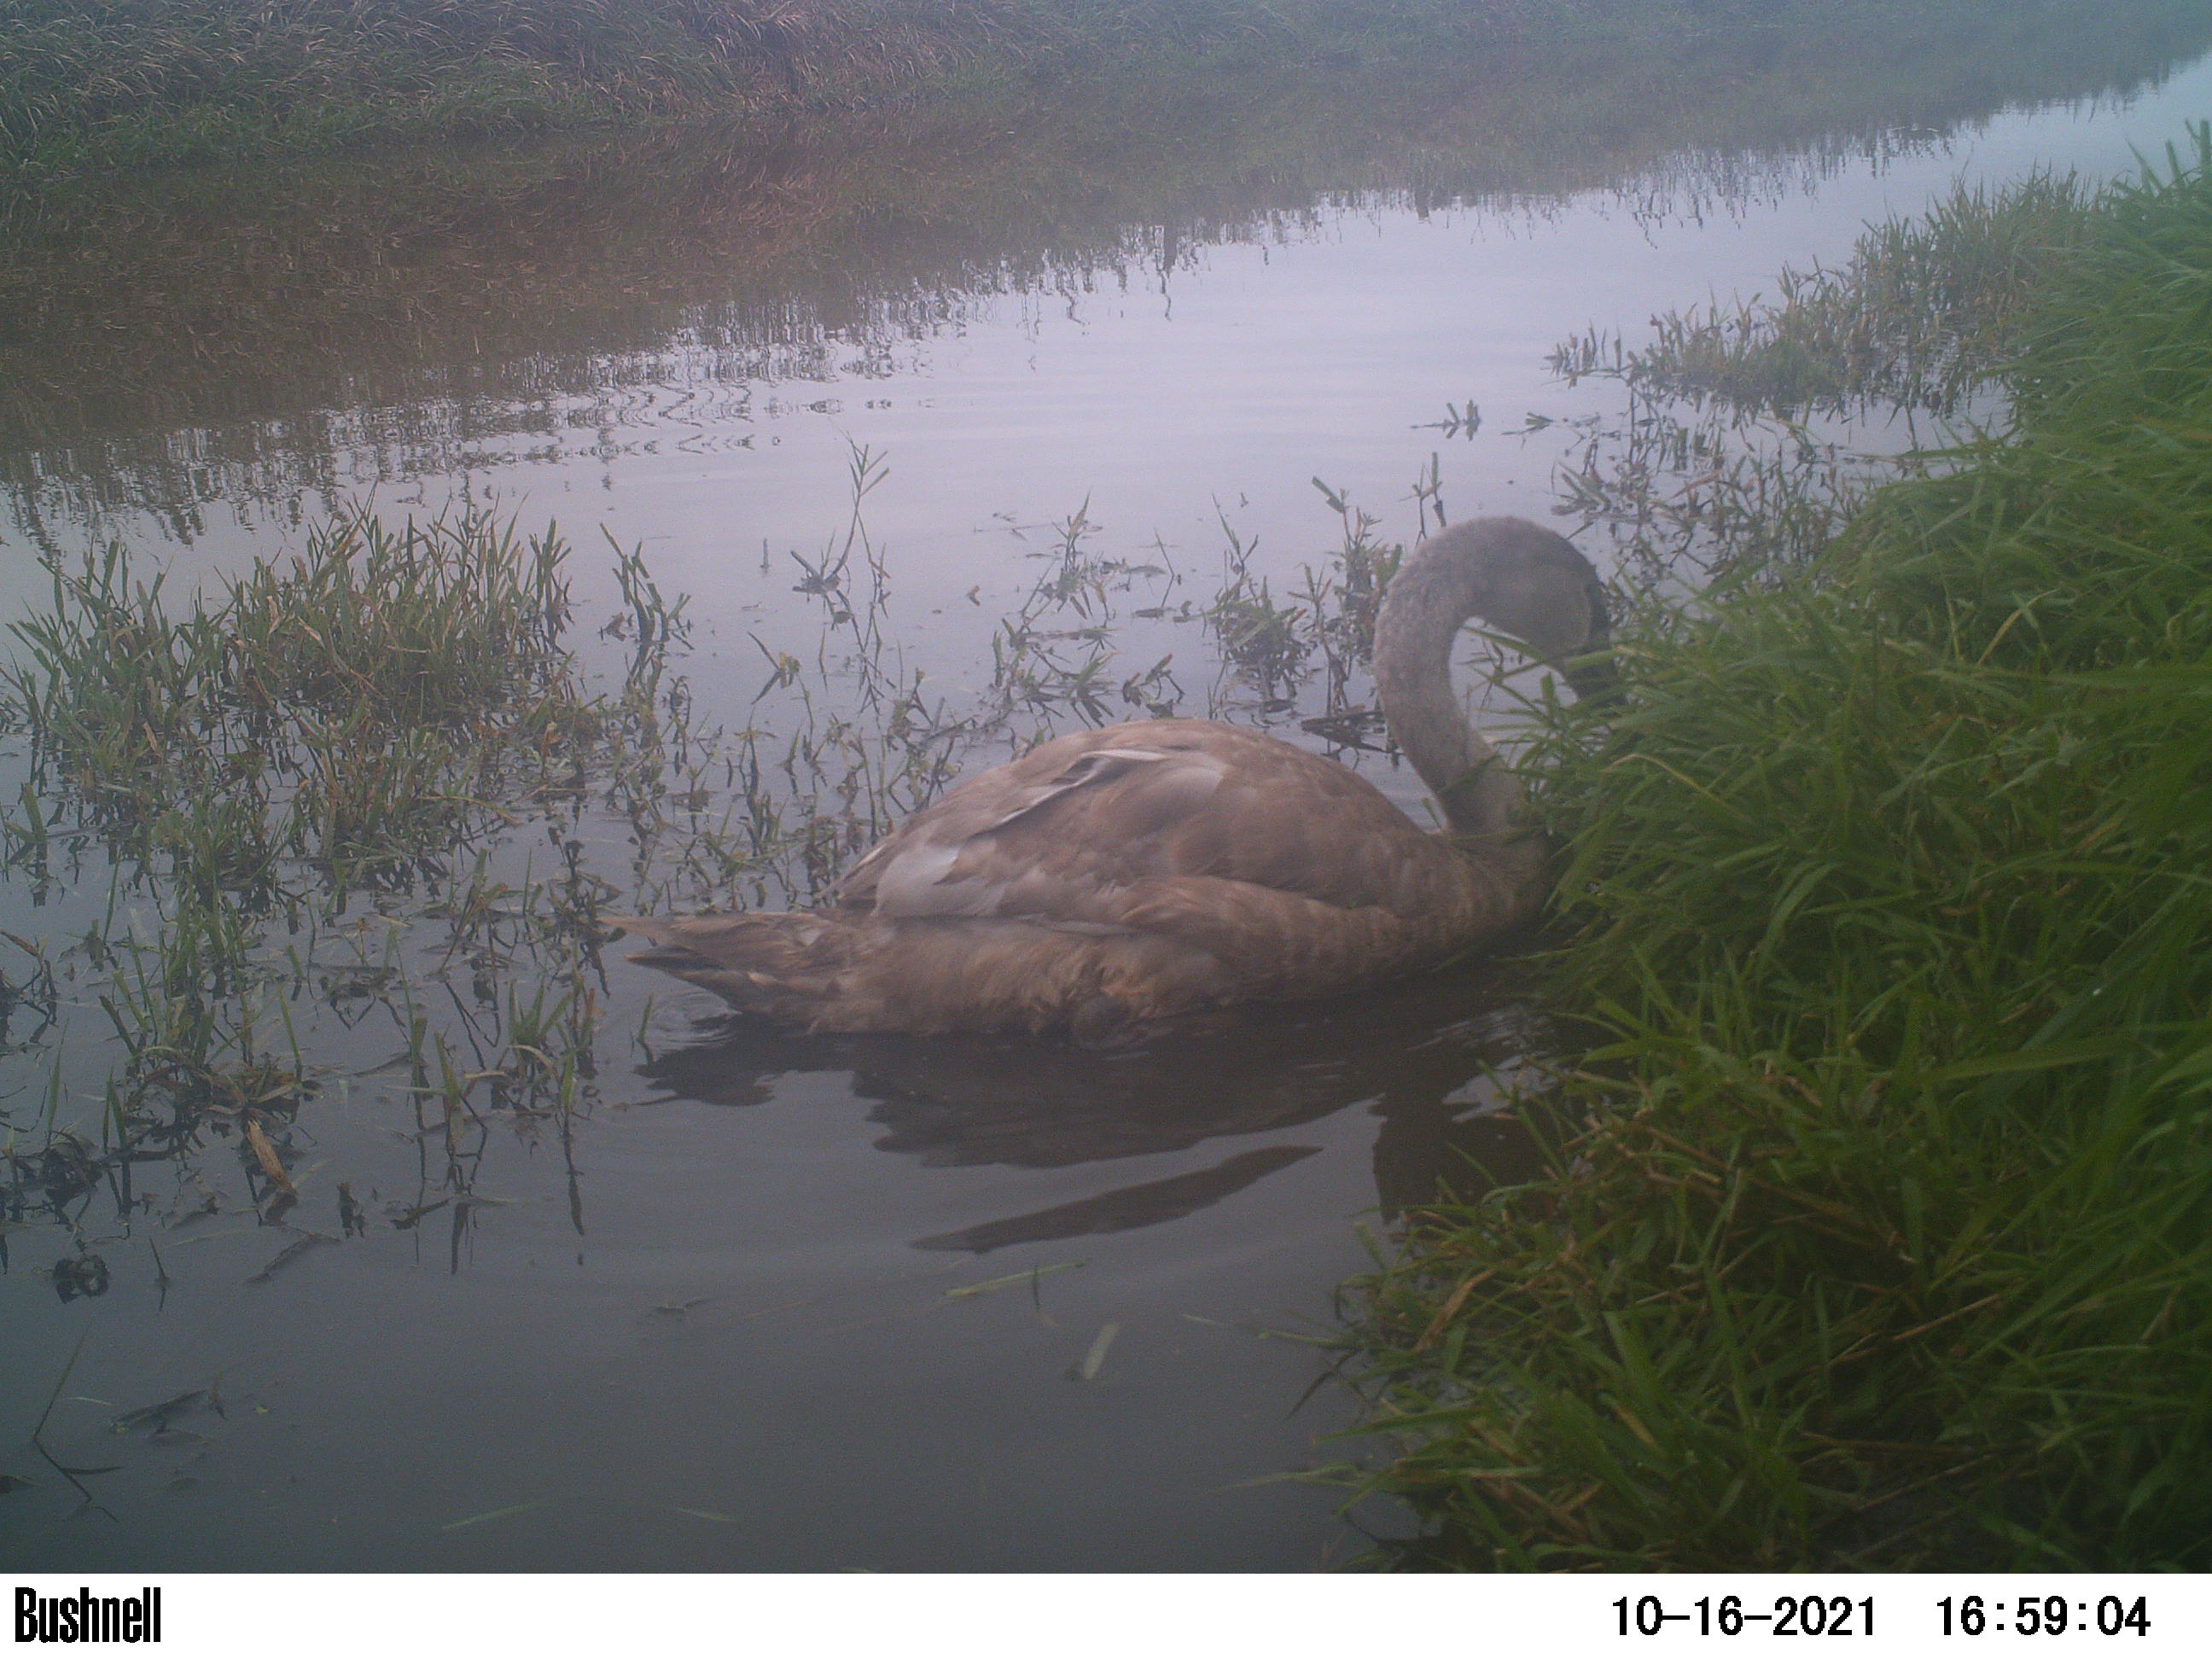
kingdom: Animalia
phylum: Chordata
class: Aves
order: Anseriformes
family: Anatidae
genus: Cygnus
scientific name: Cygnus olor
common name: Mute swan
